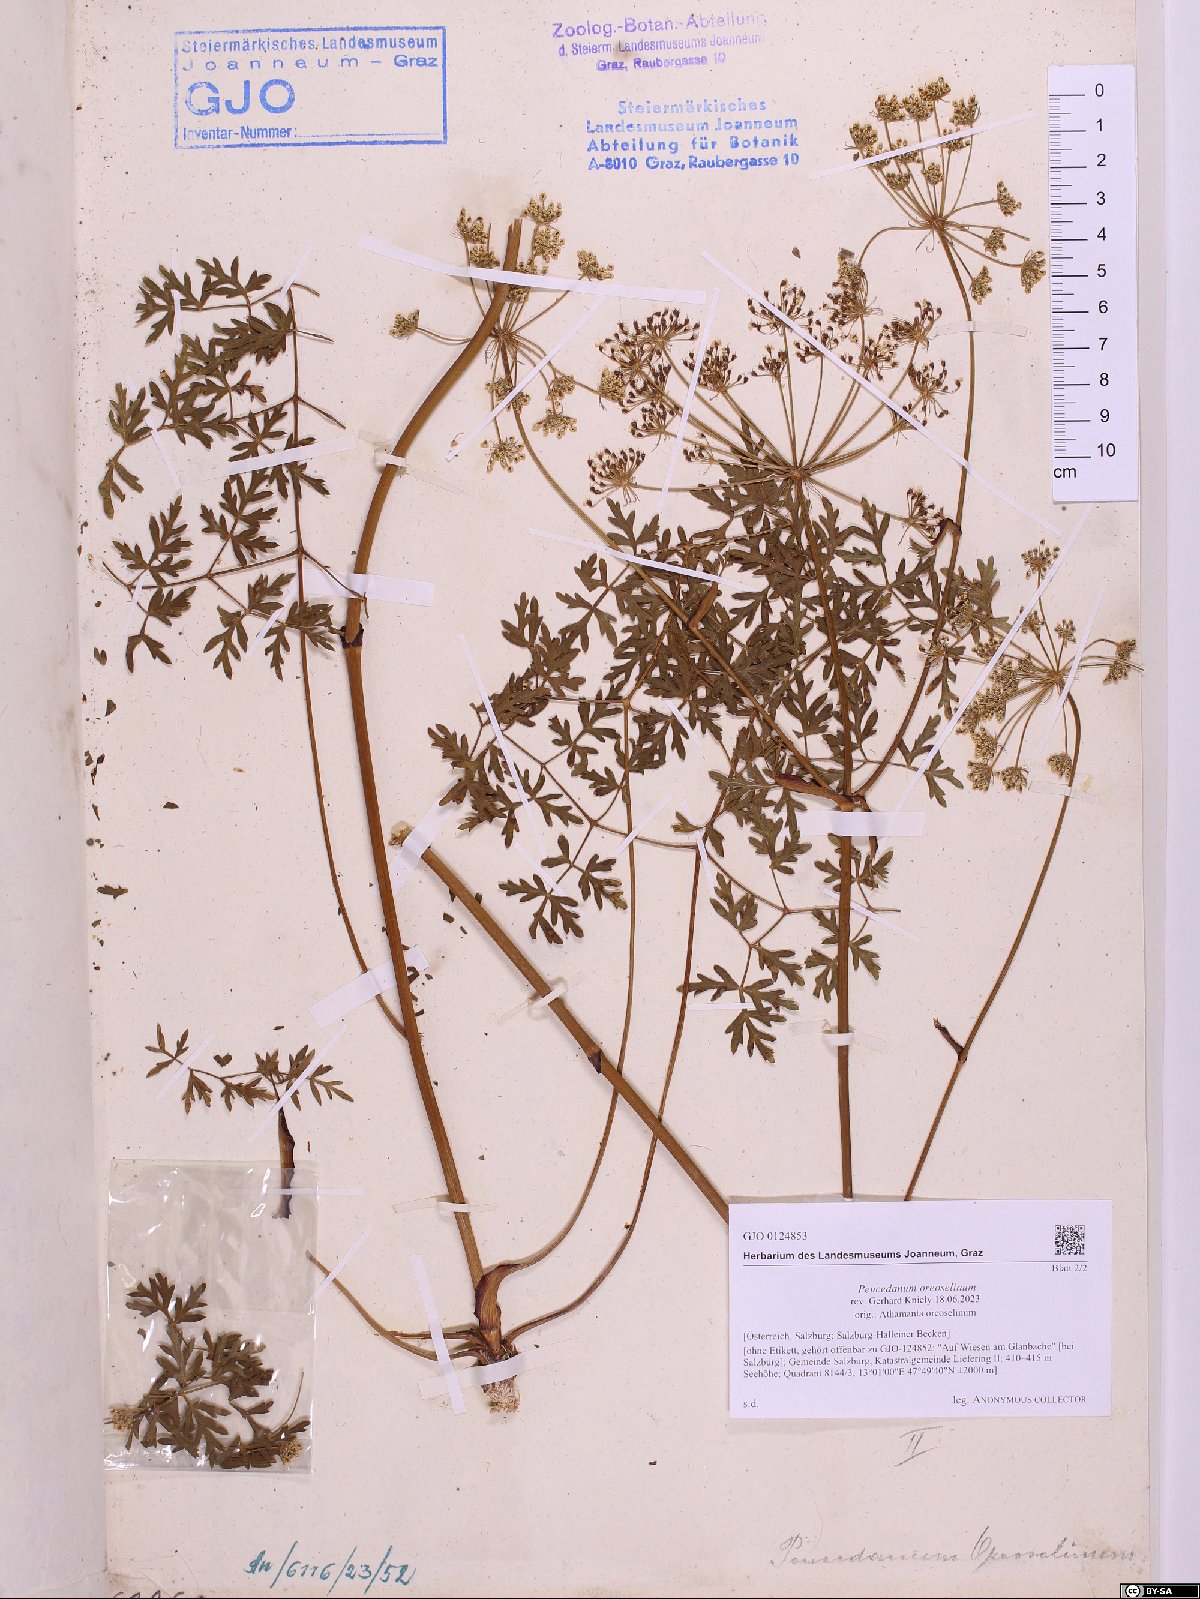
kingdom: Plantae
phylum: Tracheophyta
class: Magnoliopsida
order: Apiales
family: Apiaceae
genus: Oreoselinum
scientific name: Oreoselinum nigrum
